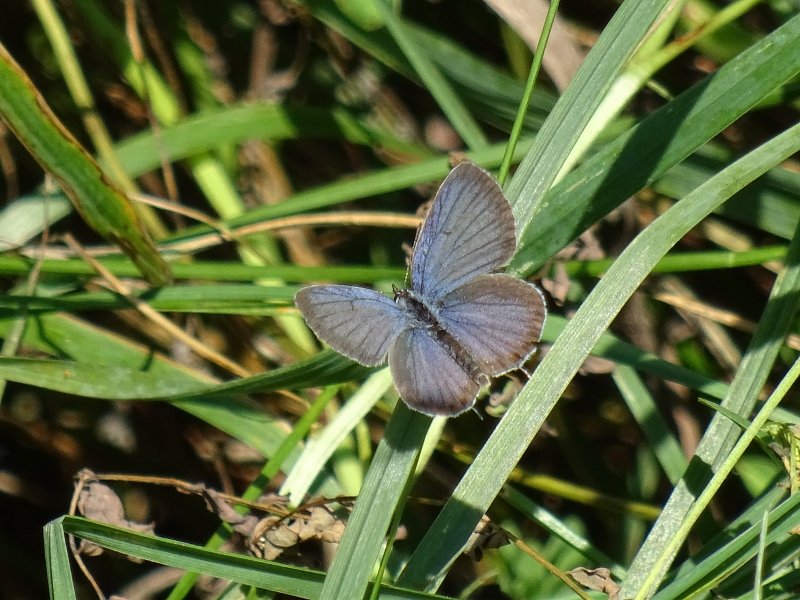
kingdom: Animalia
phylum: Arthropoda
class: Insecta
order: Lepidoptera
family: Lycaenidae
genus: Elkalyce
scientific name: Elkalyce comyntas
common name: Eastern Tailed-Blue
